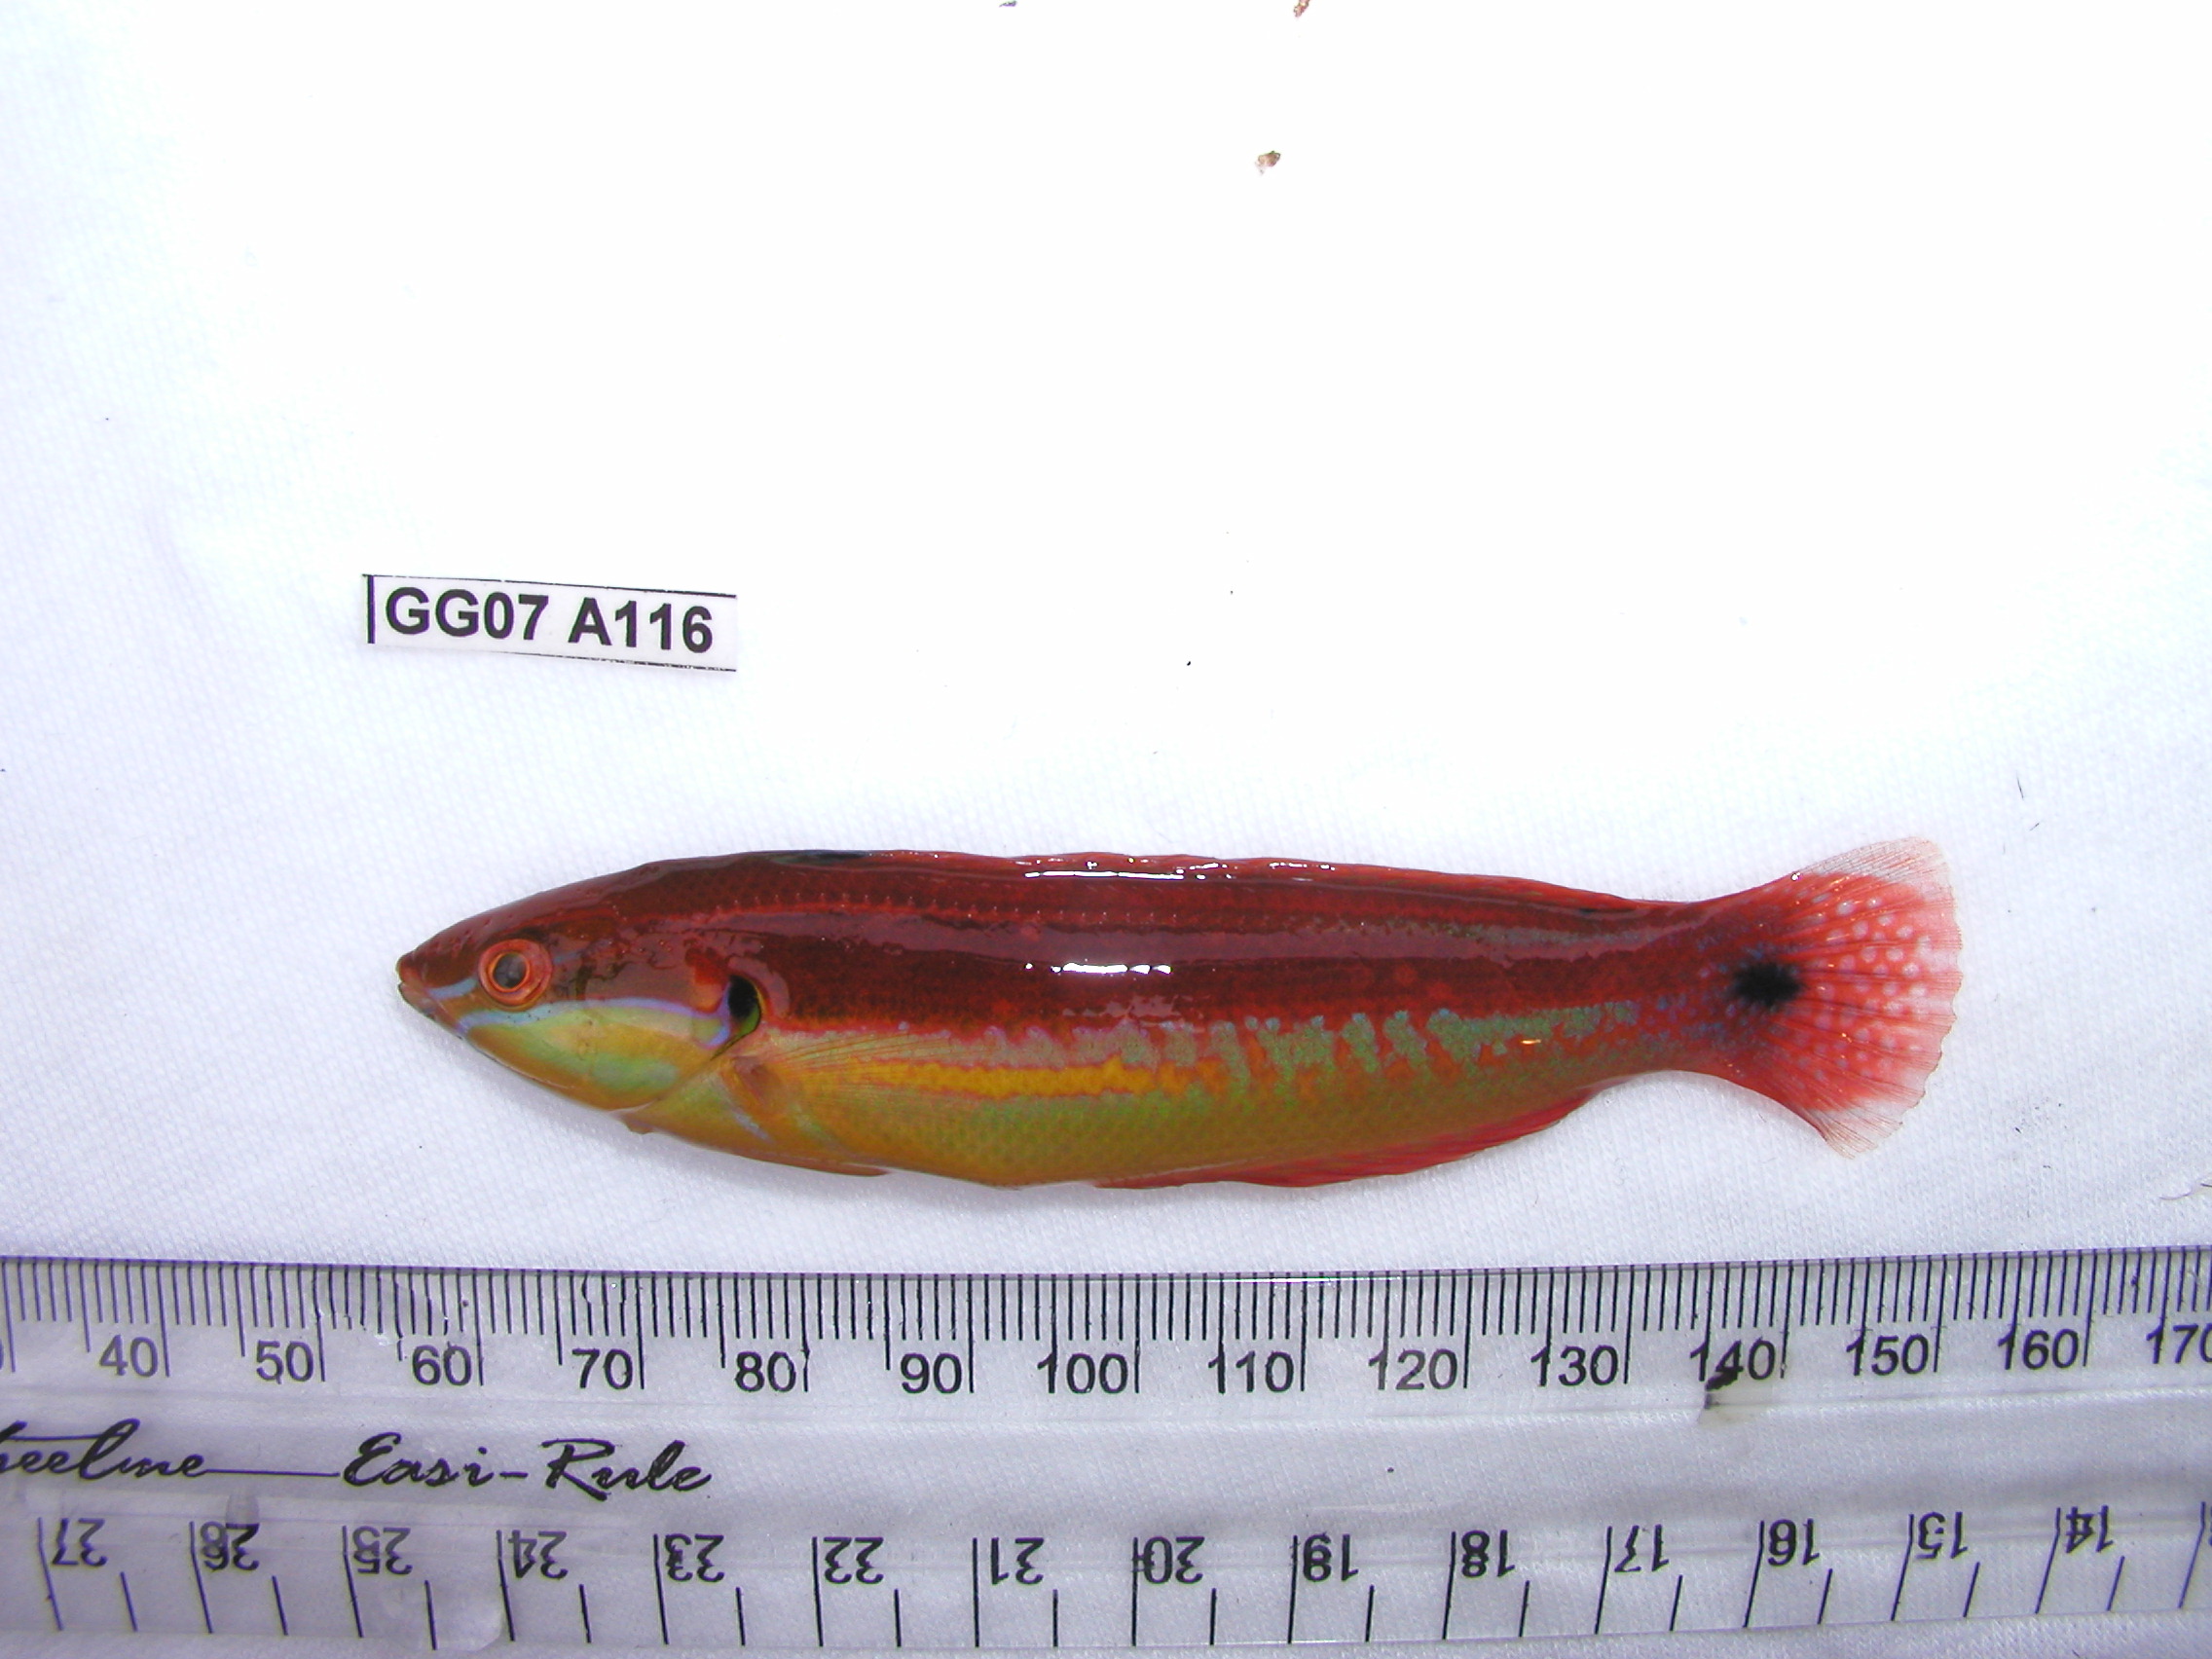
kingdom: Animalia
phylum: Chordata
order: Perciformes
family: Labridae
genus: Coris
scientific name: Coris caudimacula
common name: Spottail coris
